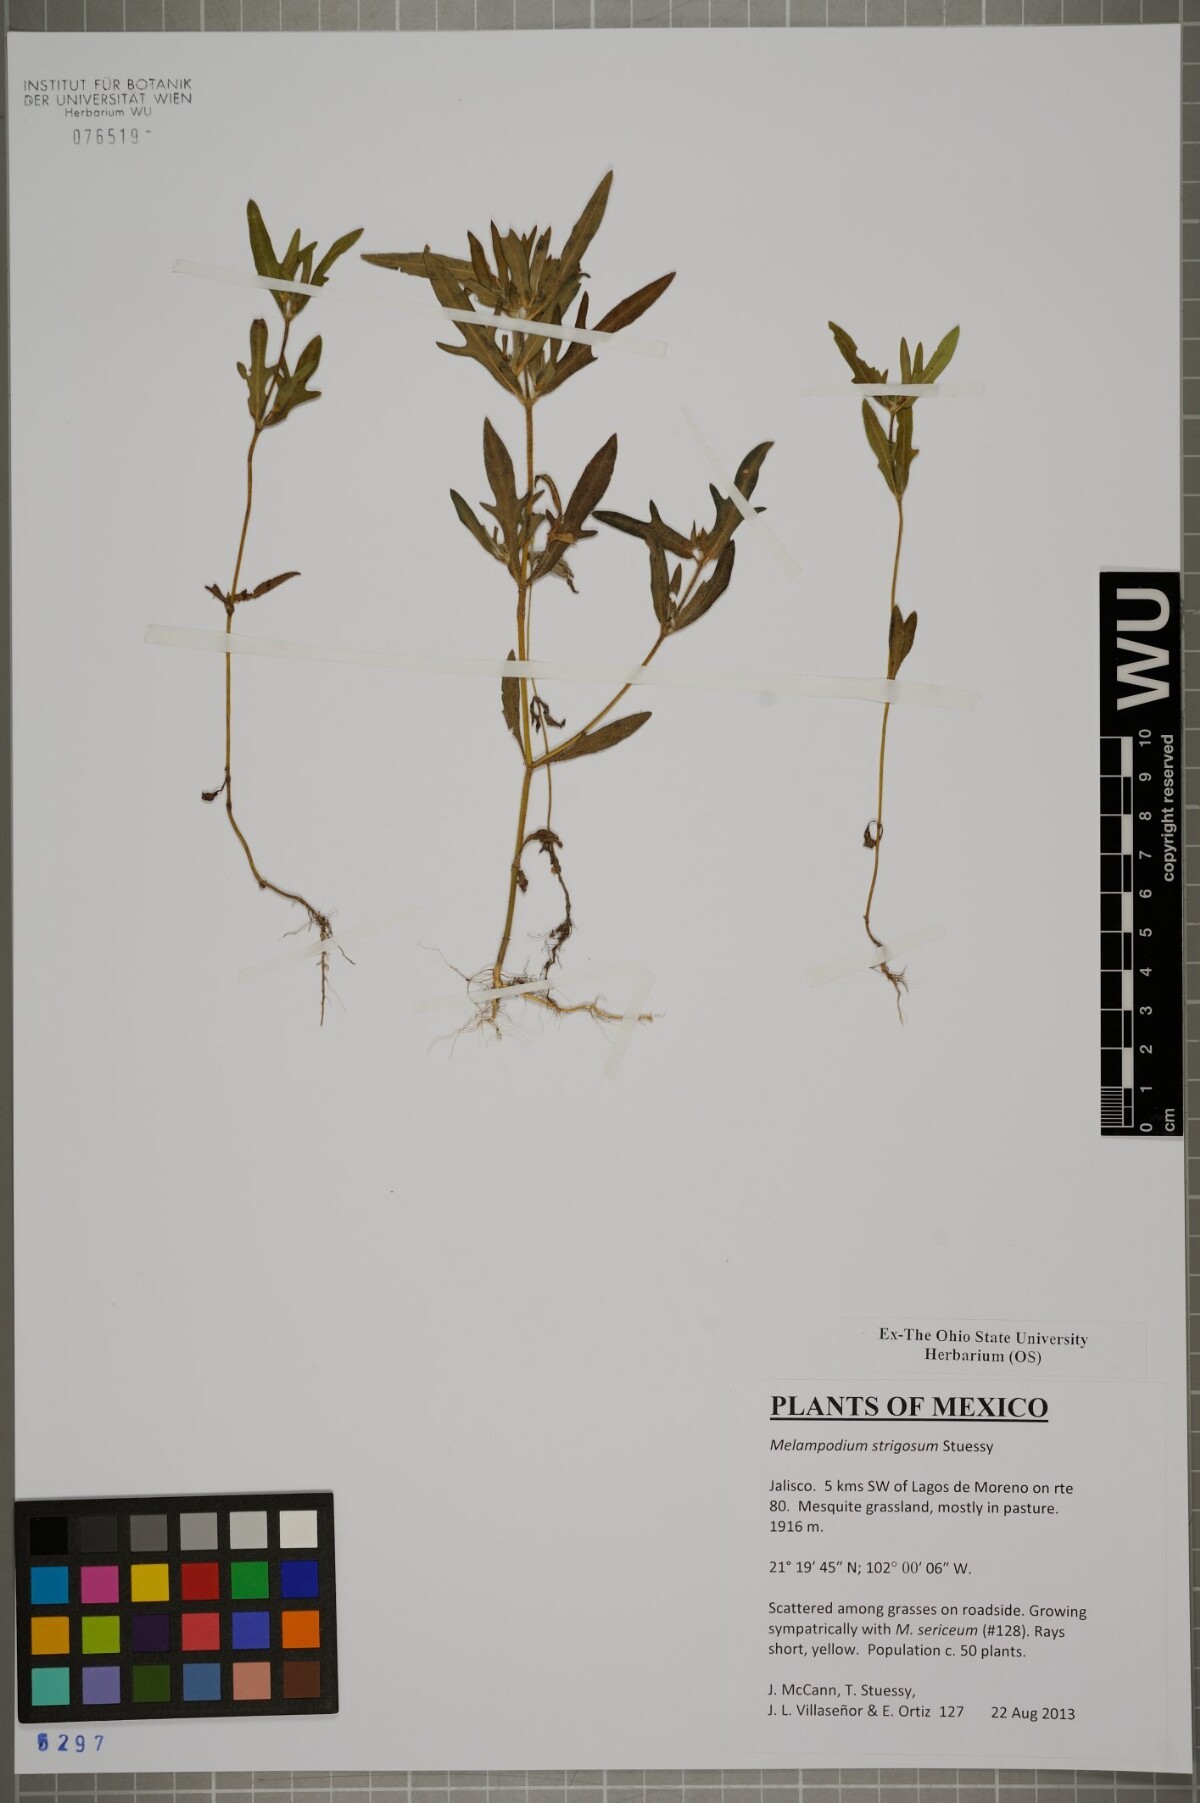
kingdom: Plantae
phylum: Tracheophyta
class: Magnoliopsida
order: Asterales
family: Asteraceae
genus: Melampodium
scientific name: Melampodium strigosum
